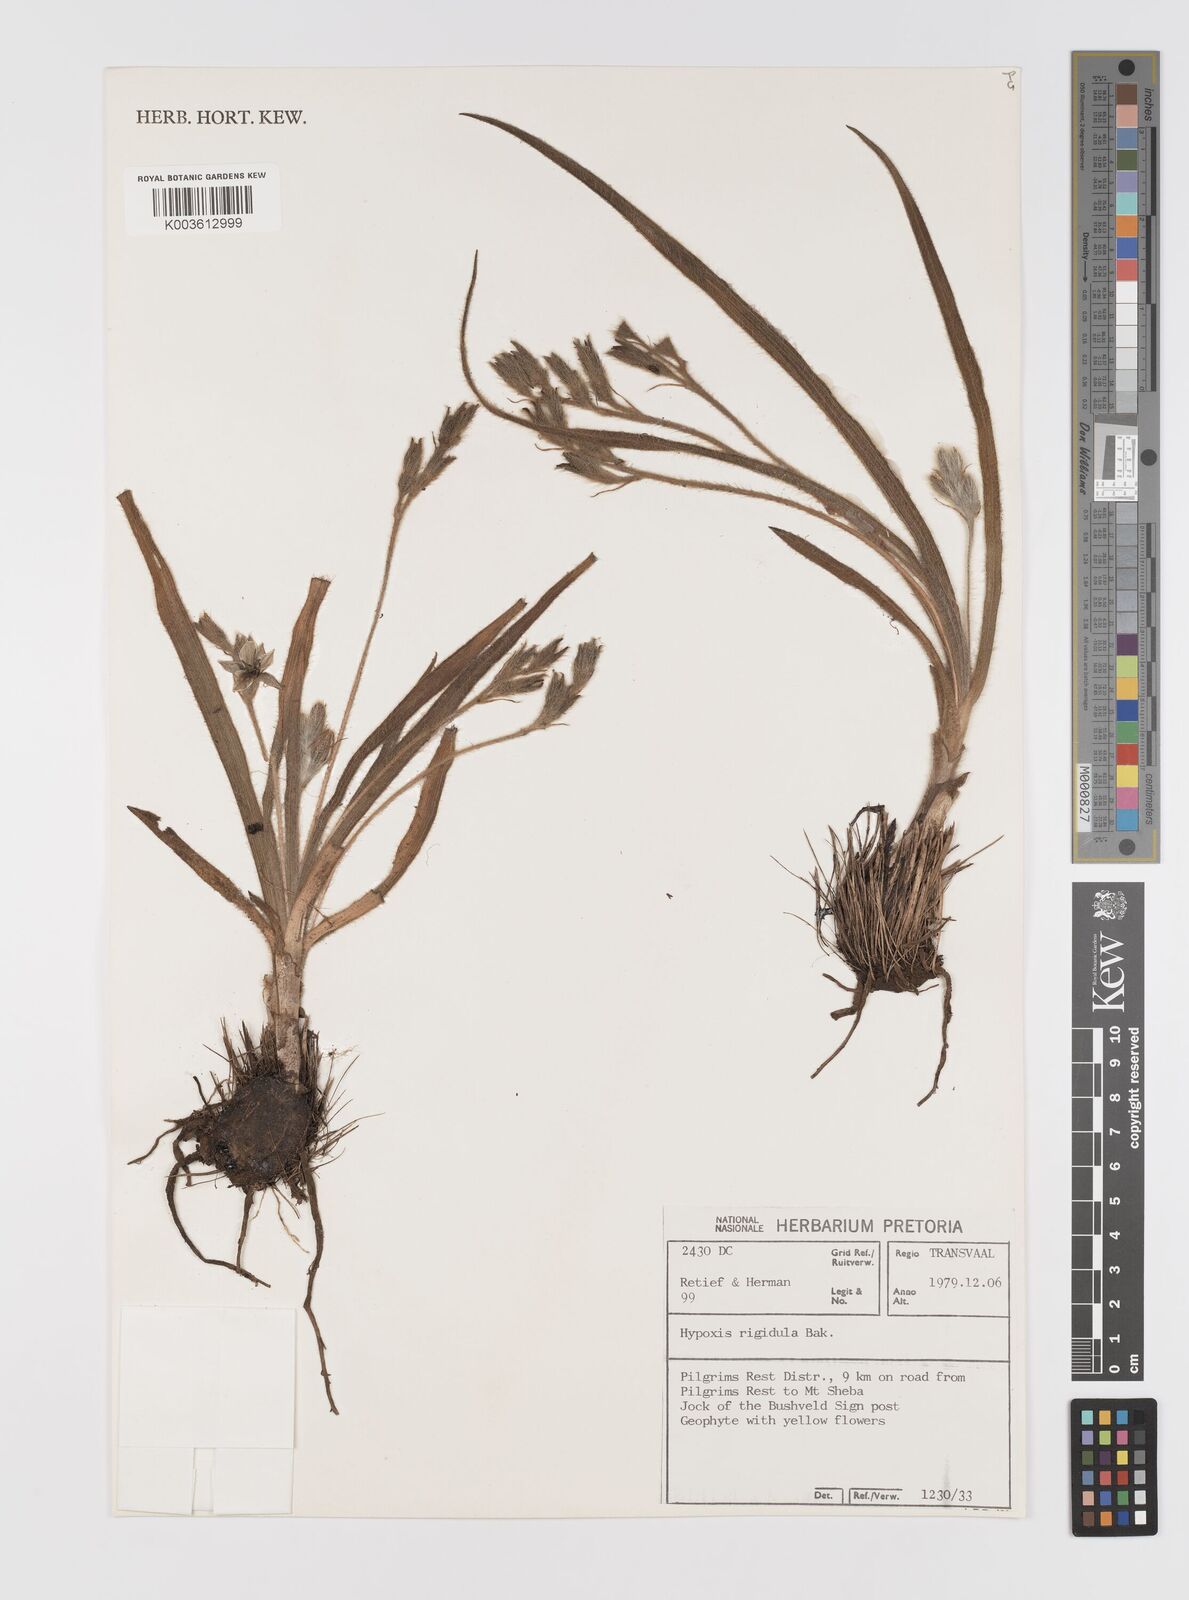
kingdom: Plantae
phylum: Tracheophyta
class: Liliopsida
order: Asparagales
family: Hypoxidaceae
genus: Hypoxis
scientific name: Hypoxis rigidula
